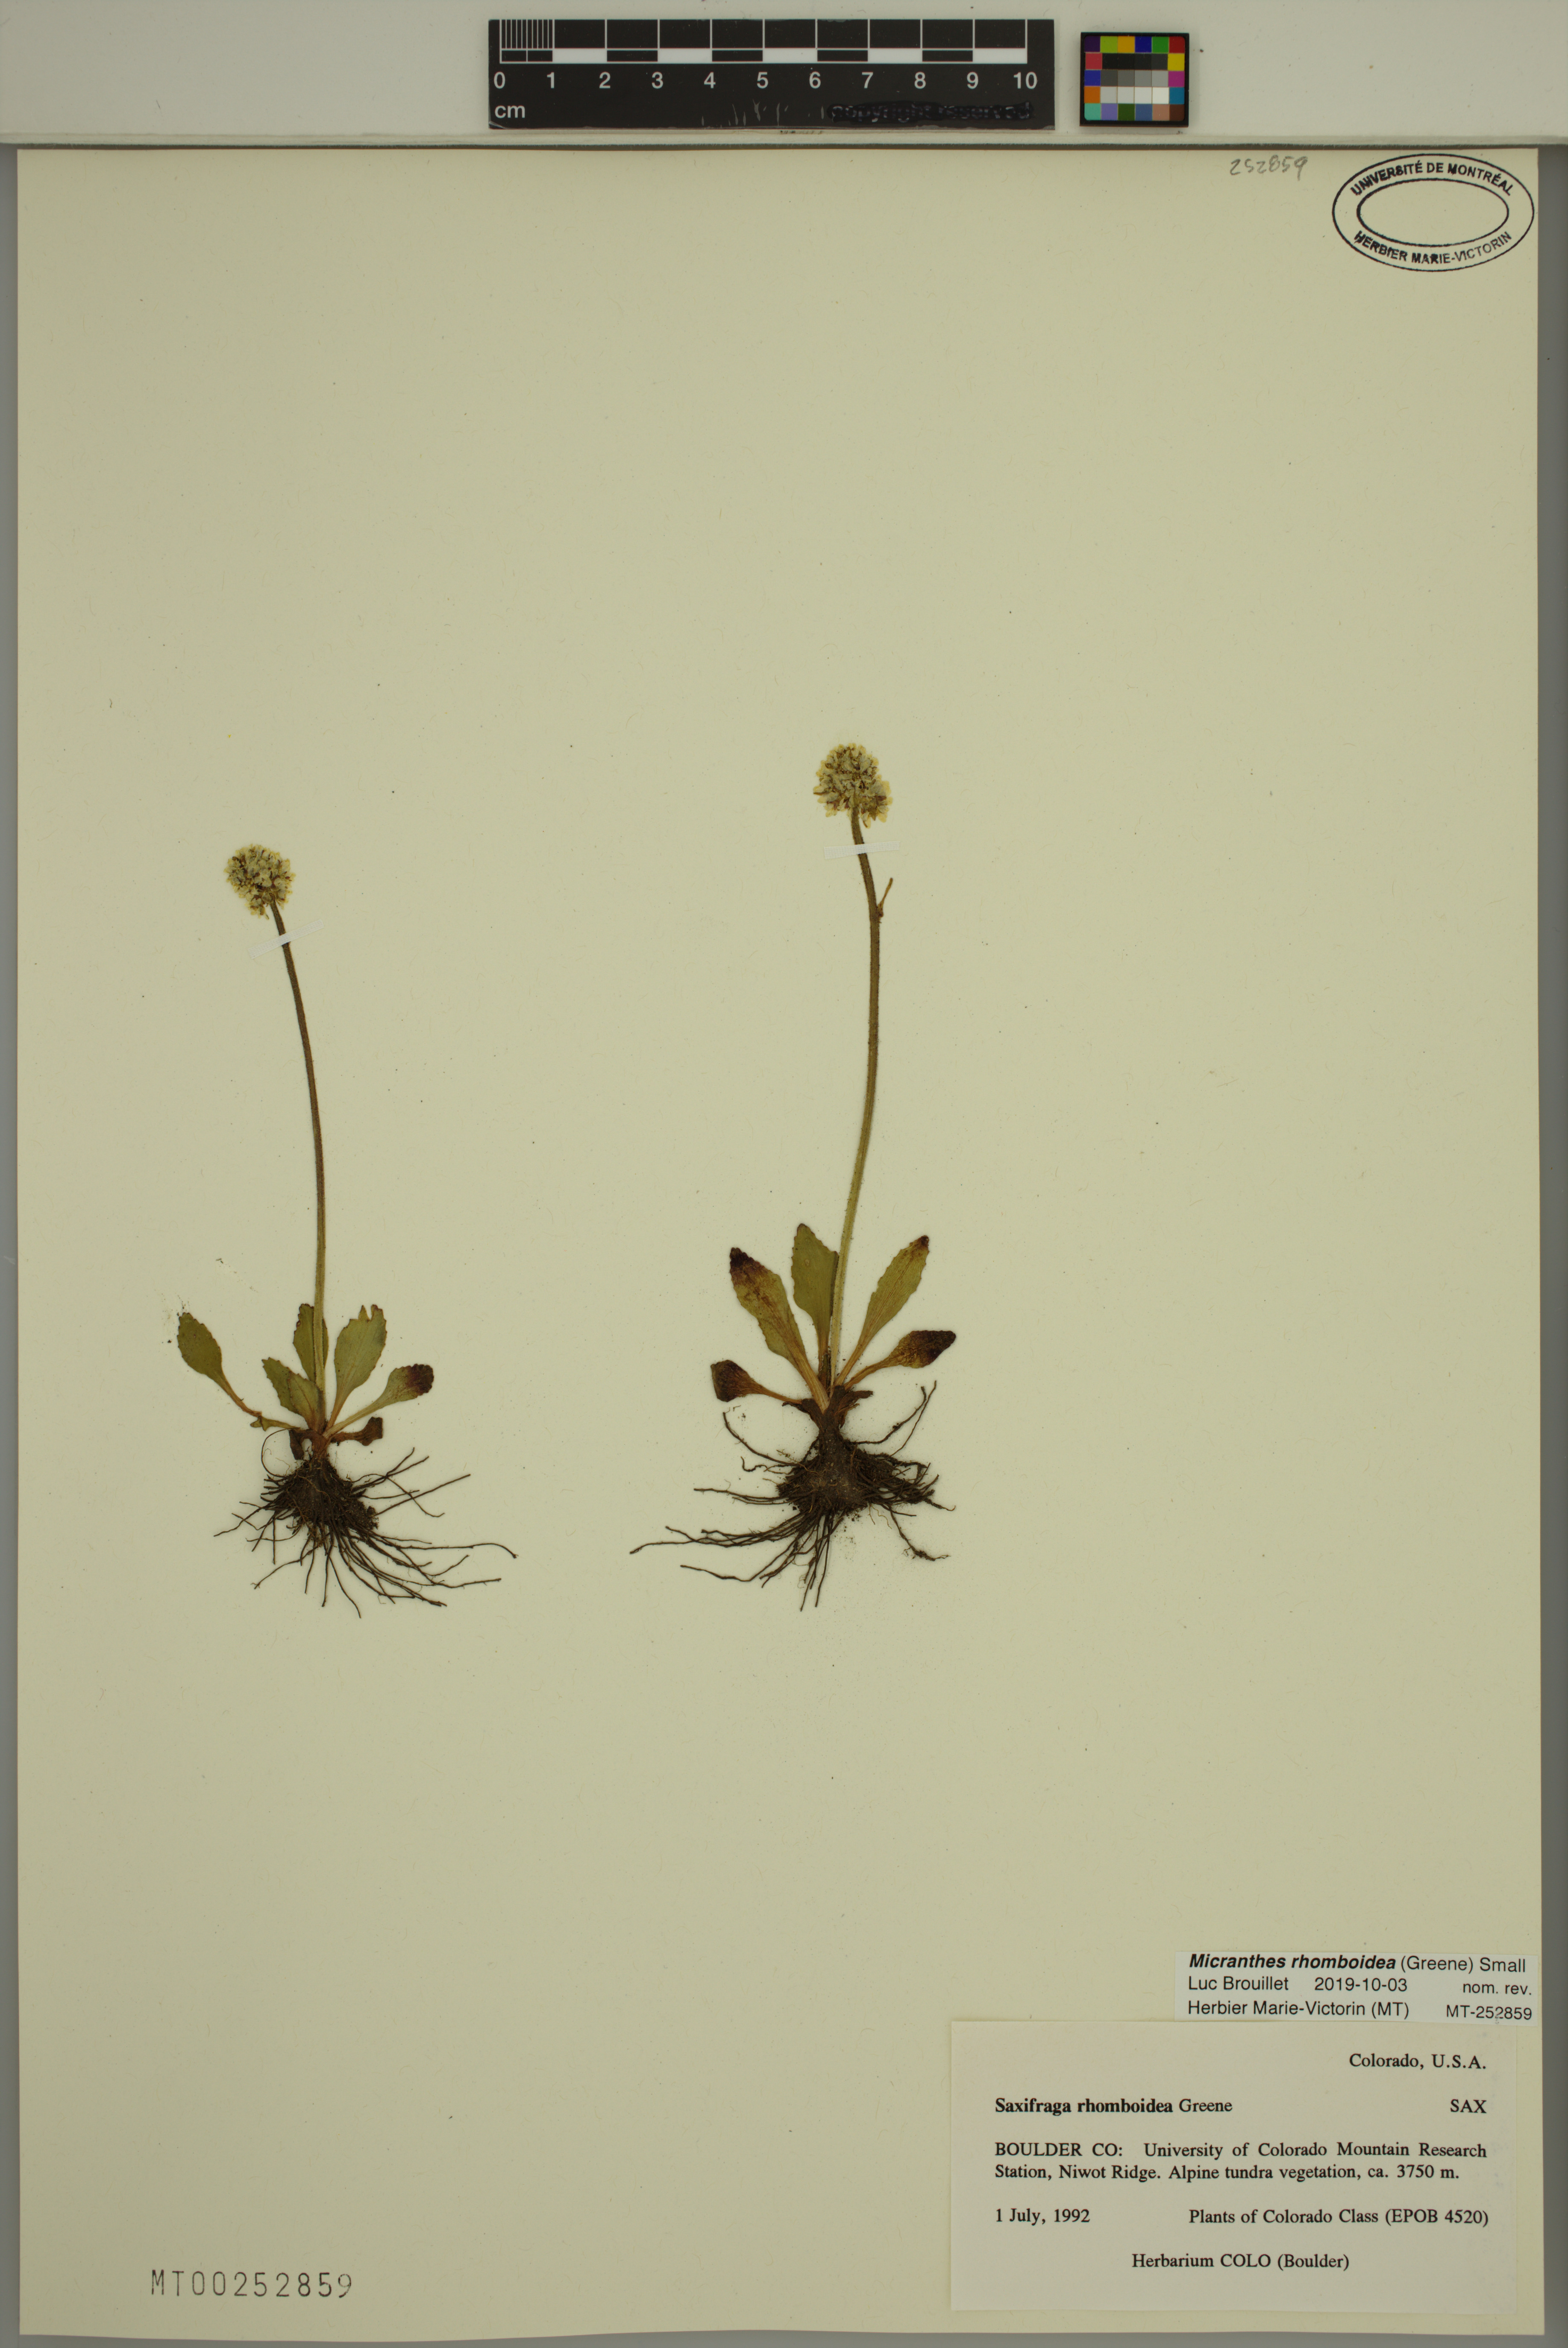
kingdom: Plantae
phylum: Tracheophyta
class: Magnoliopsida
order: Saxifragales
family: Saxifragaceae
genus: Micranthes
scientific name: Micranthes rhomboidea
